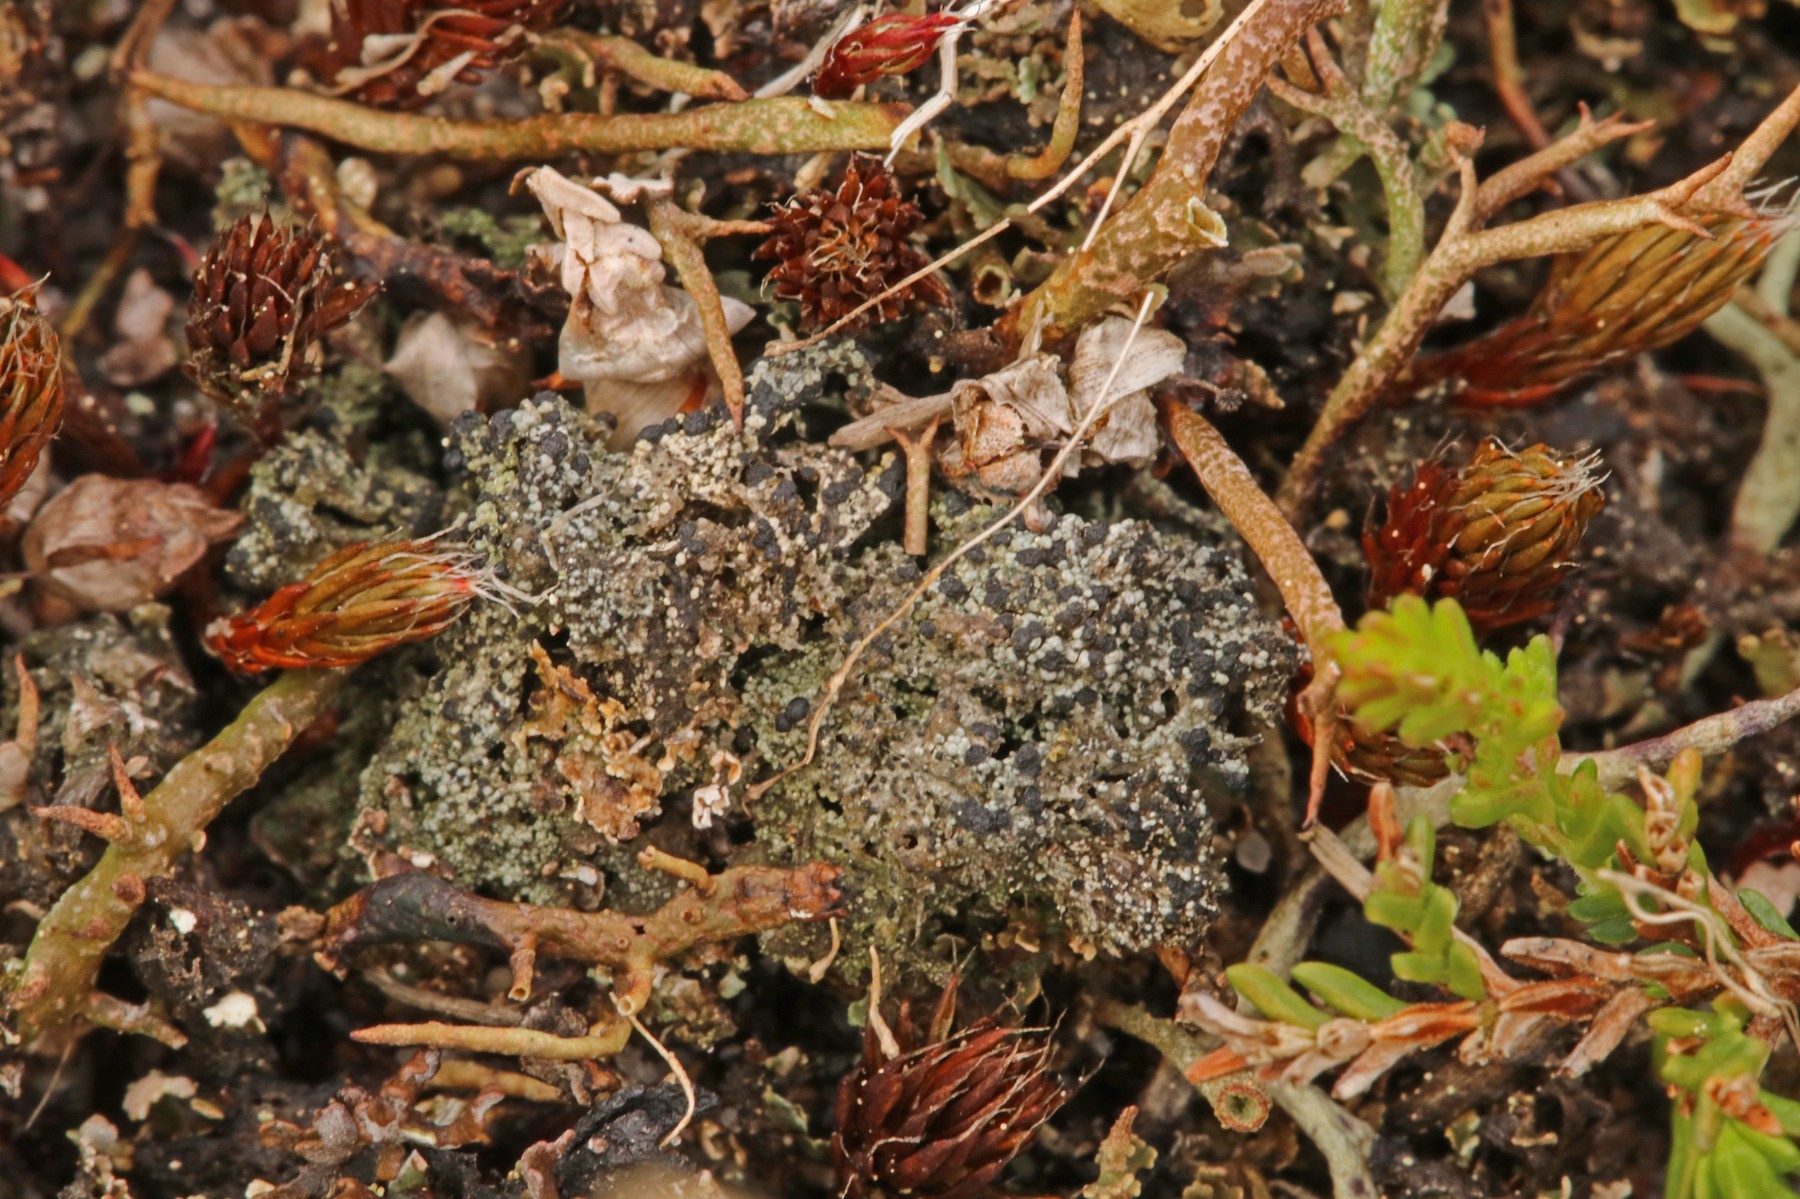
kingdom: Fungi
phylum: Ascomycota
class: Lecanoromycetes
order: Lecanorales
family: Byssolomataceae
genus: Micarea
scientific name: Micarea lignaria
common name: tørve-knaplav
